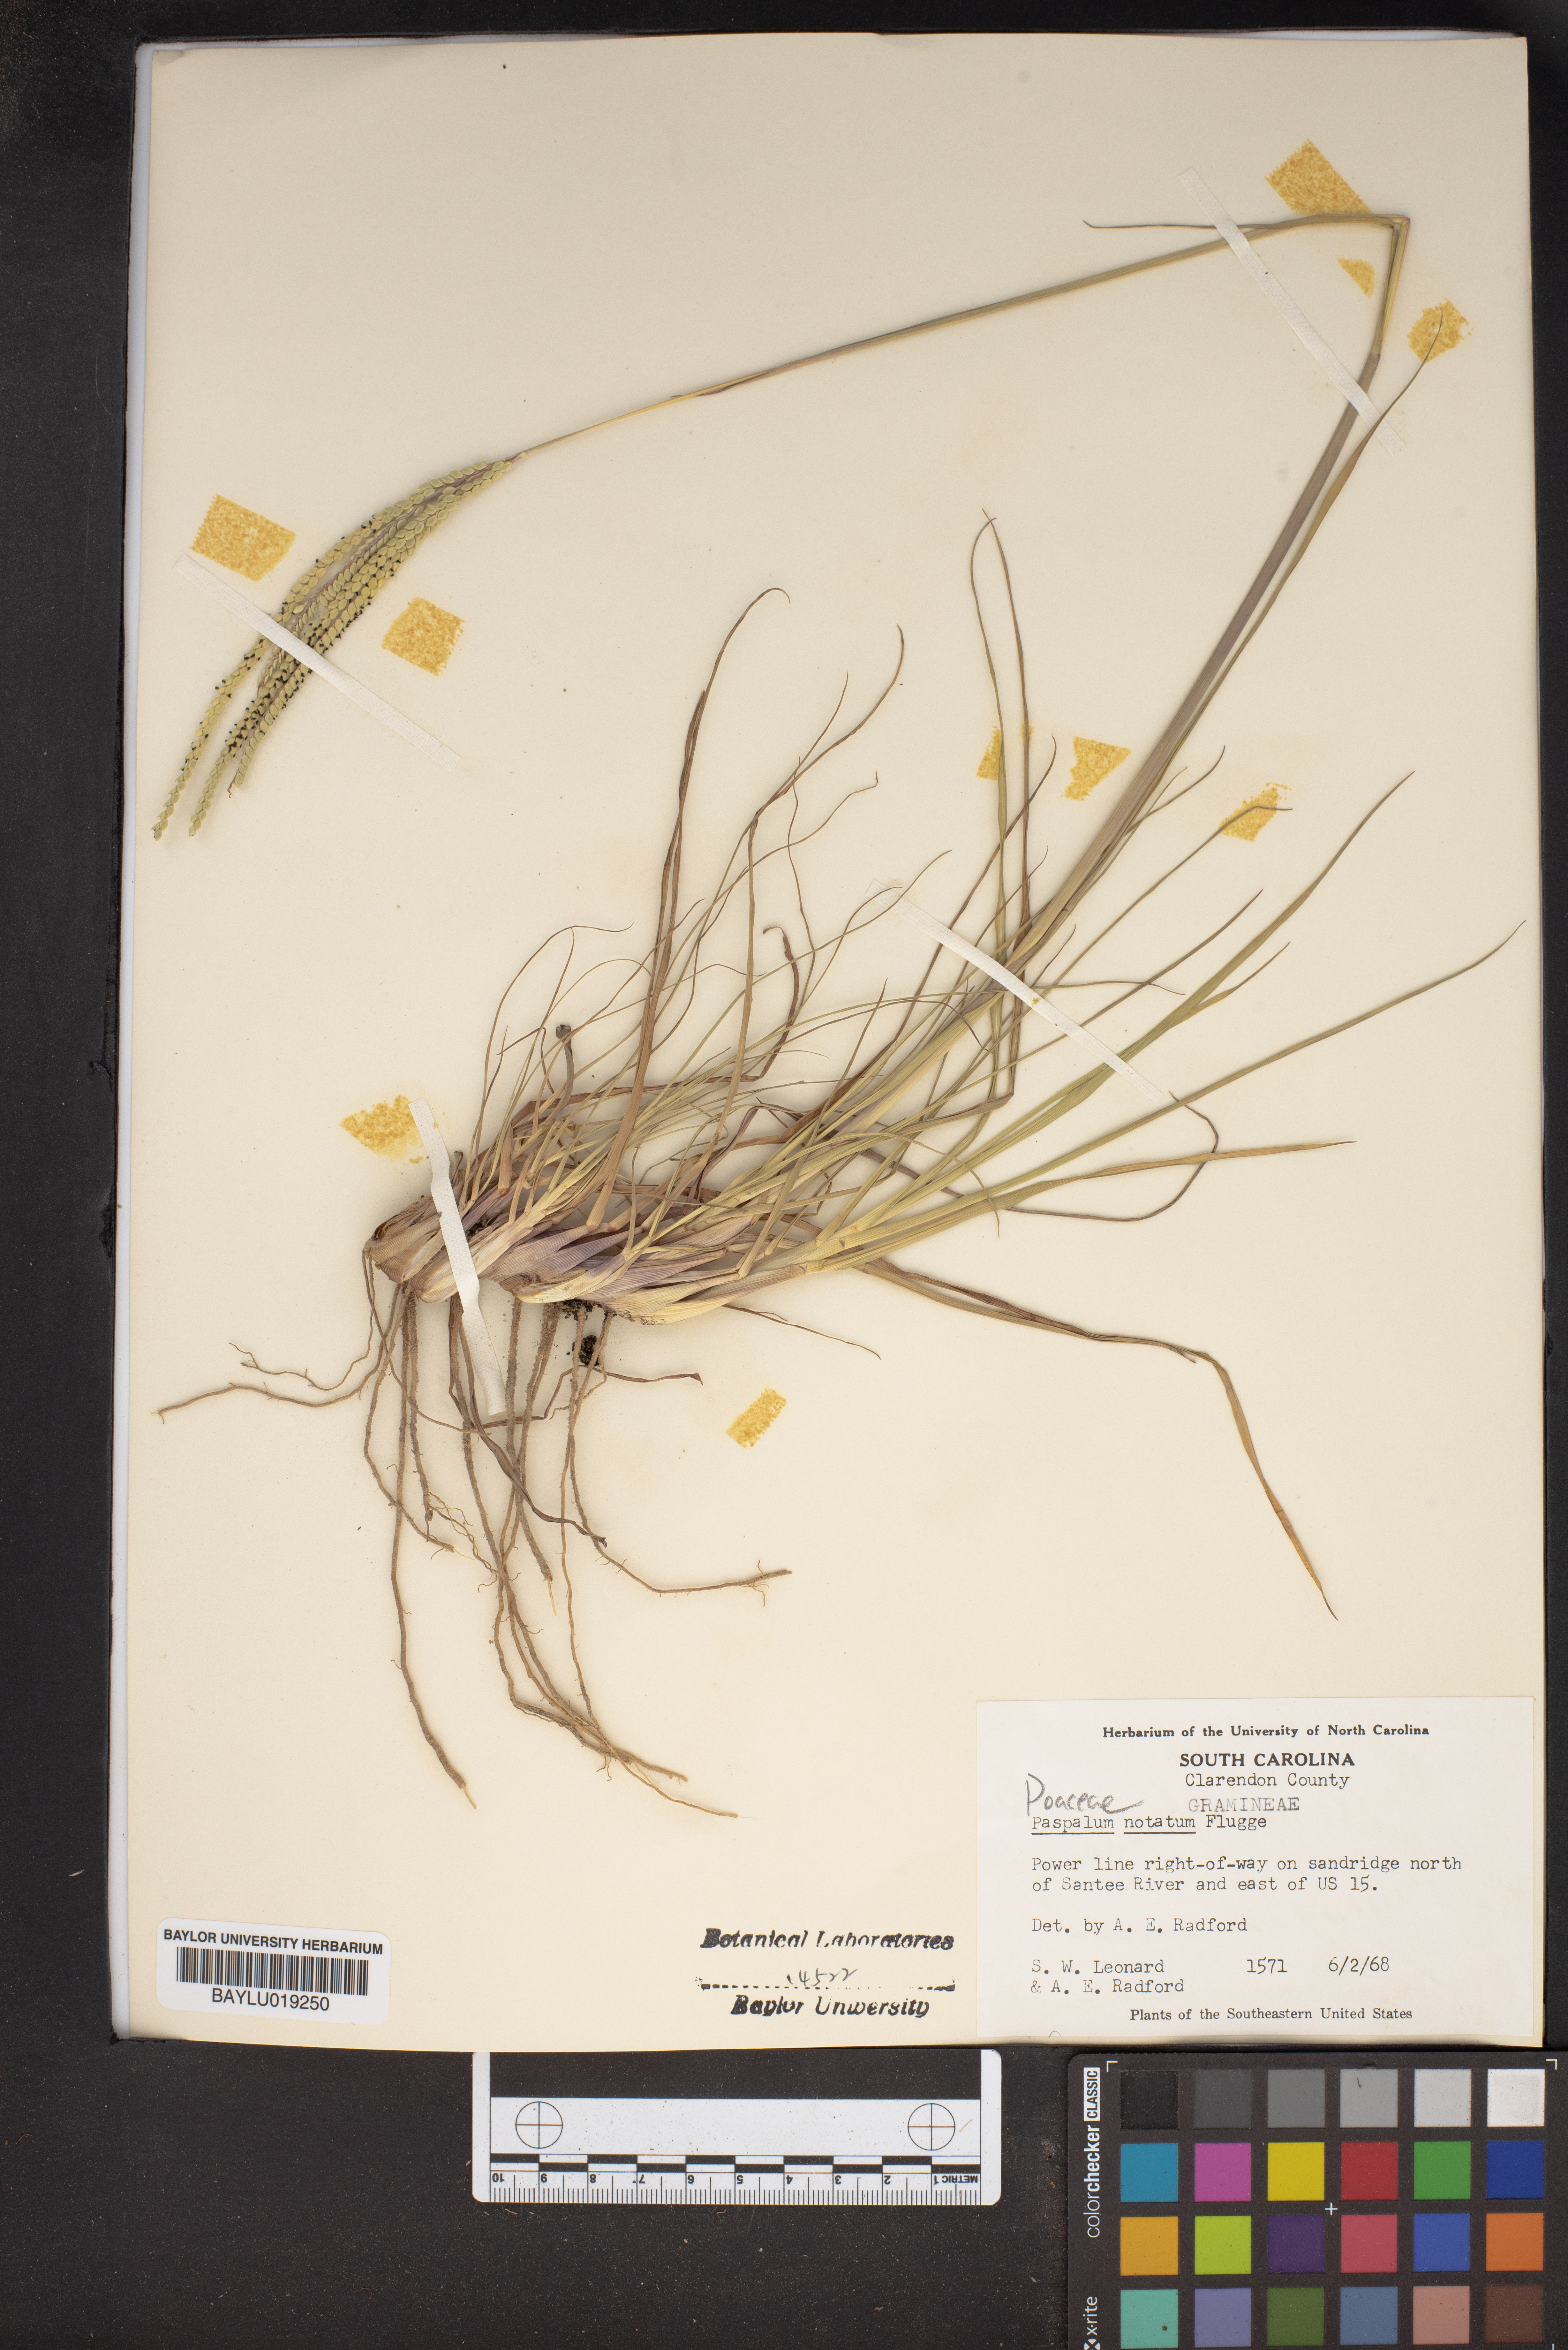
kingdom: Plantae
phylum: Tracheophyta
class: Liliopsida
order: Poales
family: Poaceae
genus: Paspalum
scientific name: Paspalum notatum
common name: Bahiagrass
